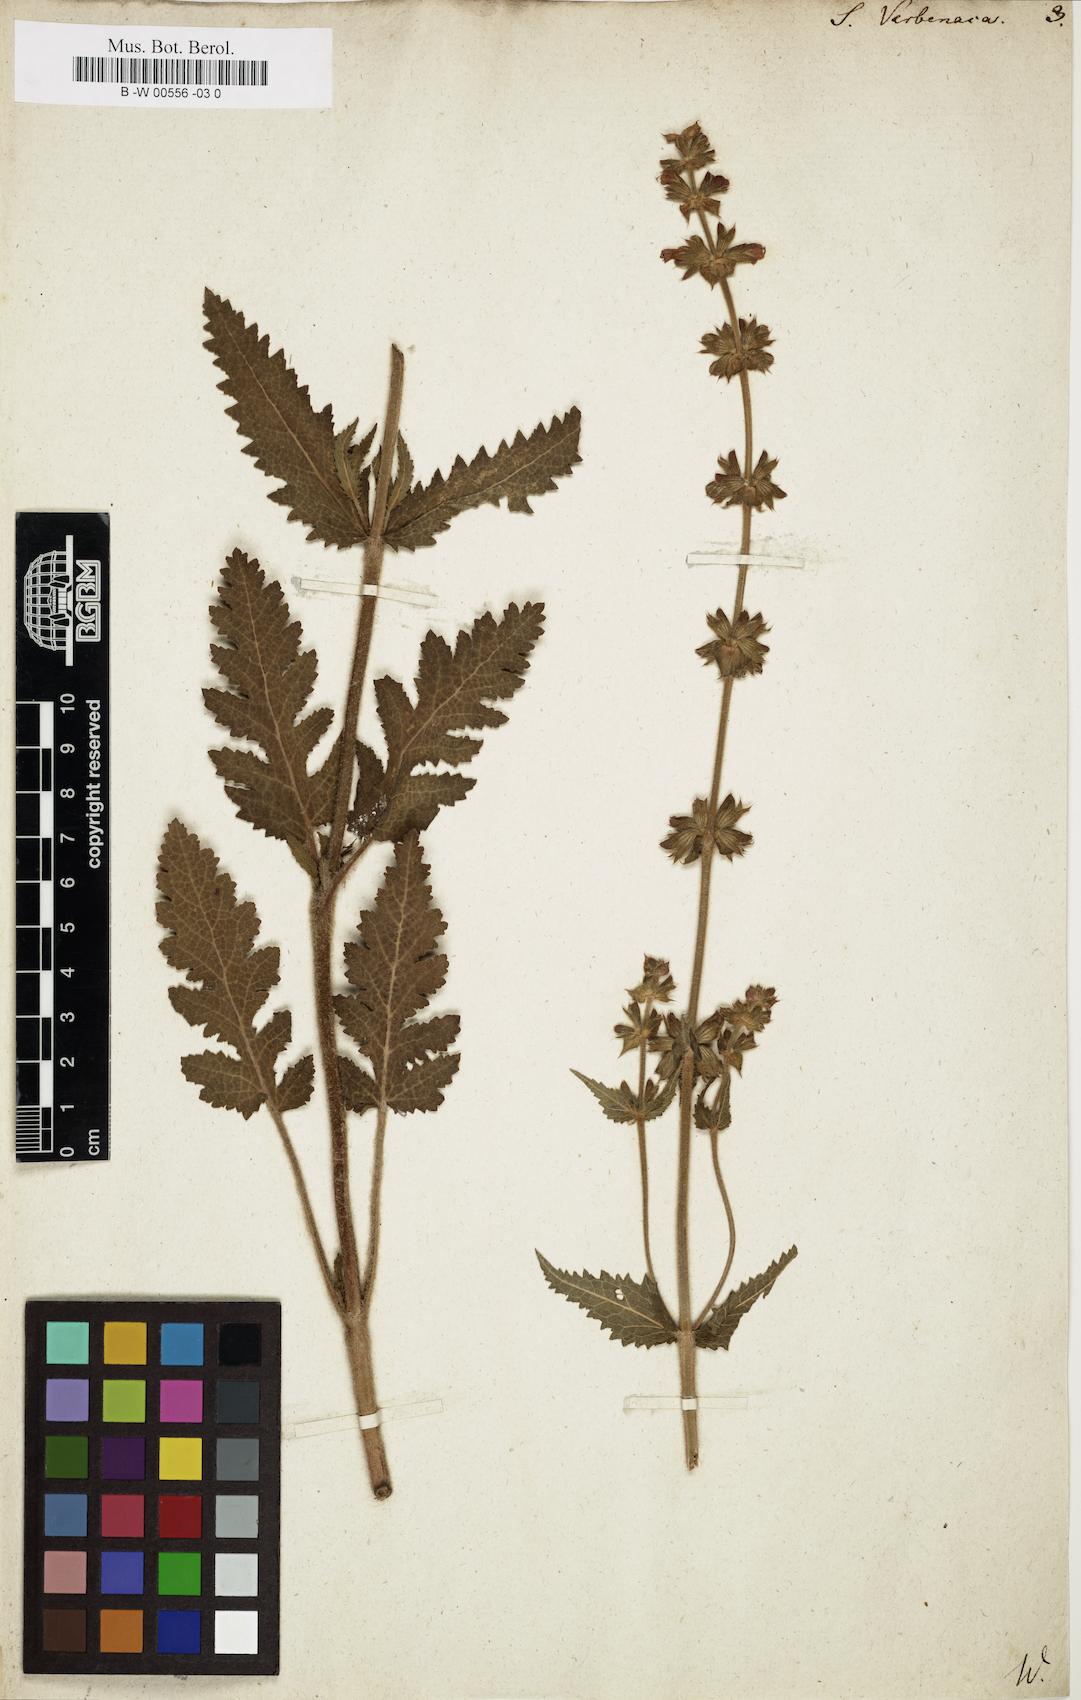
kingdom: Plantae
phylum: Tracheophyta
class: Magnoliopsida
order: Lamiales
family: Lamiaceae
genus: Salvia
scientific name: Salvia verbenaca
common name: Wild clary
